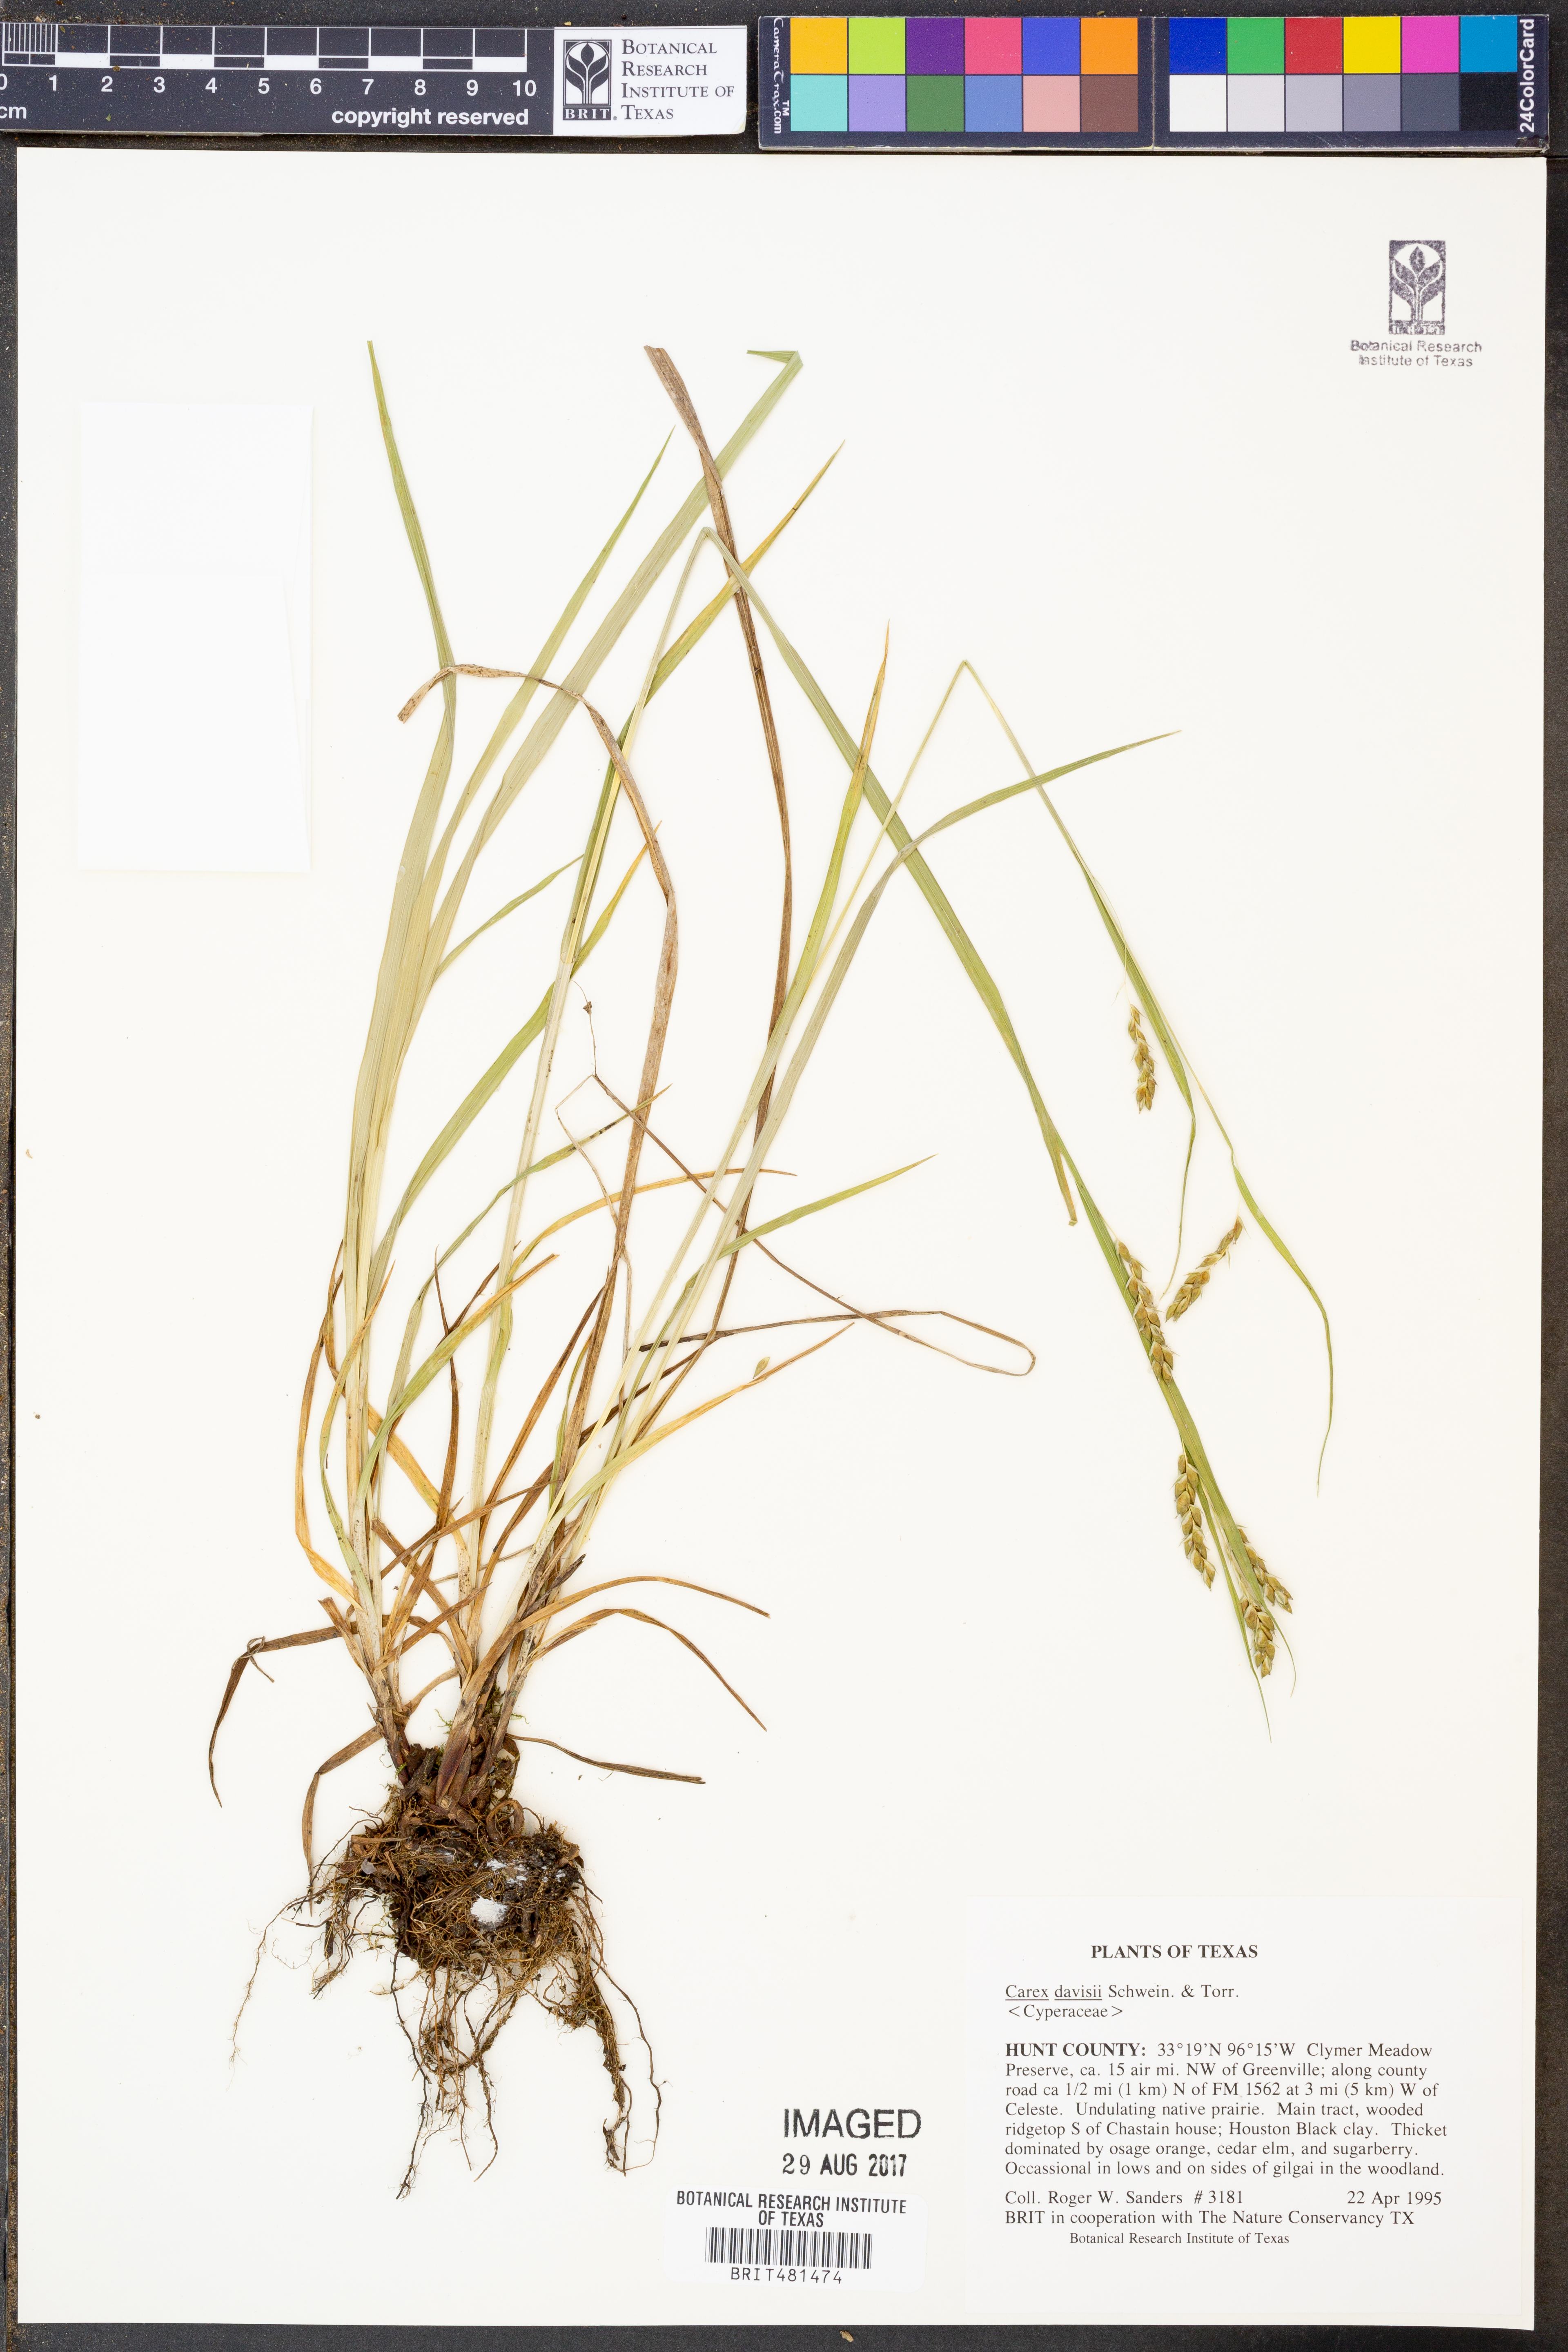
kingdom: Plantae
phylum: Tracheophyta
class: Liliopsida
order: Poales
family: Cyperaceae
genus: Carex
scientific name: Carex davisii
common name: Davis' sedge
